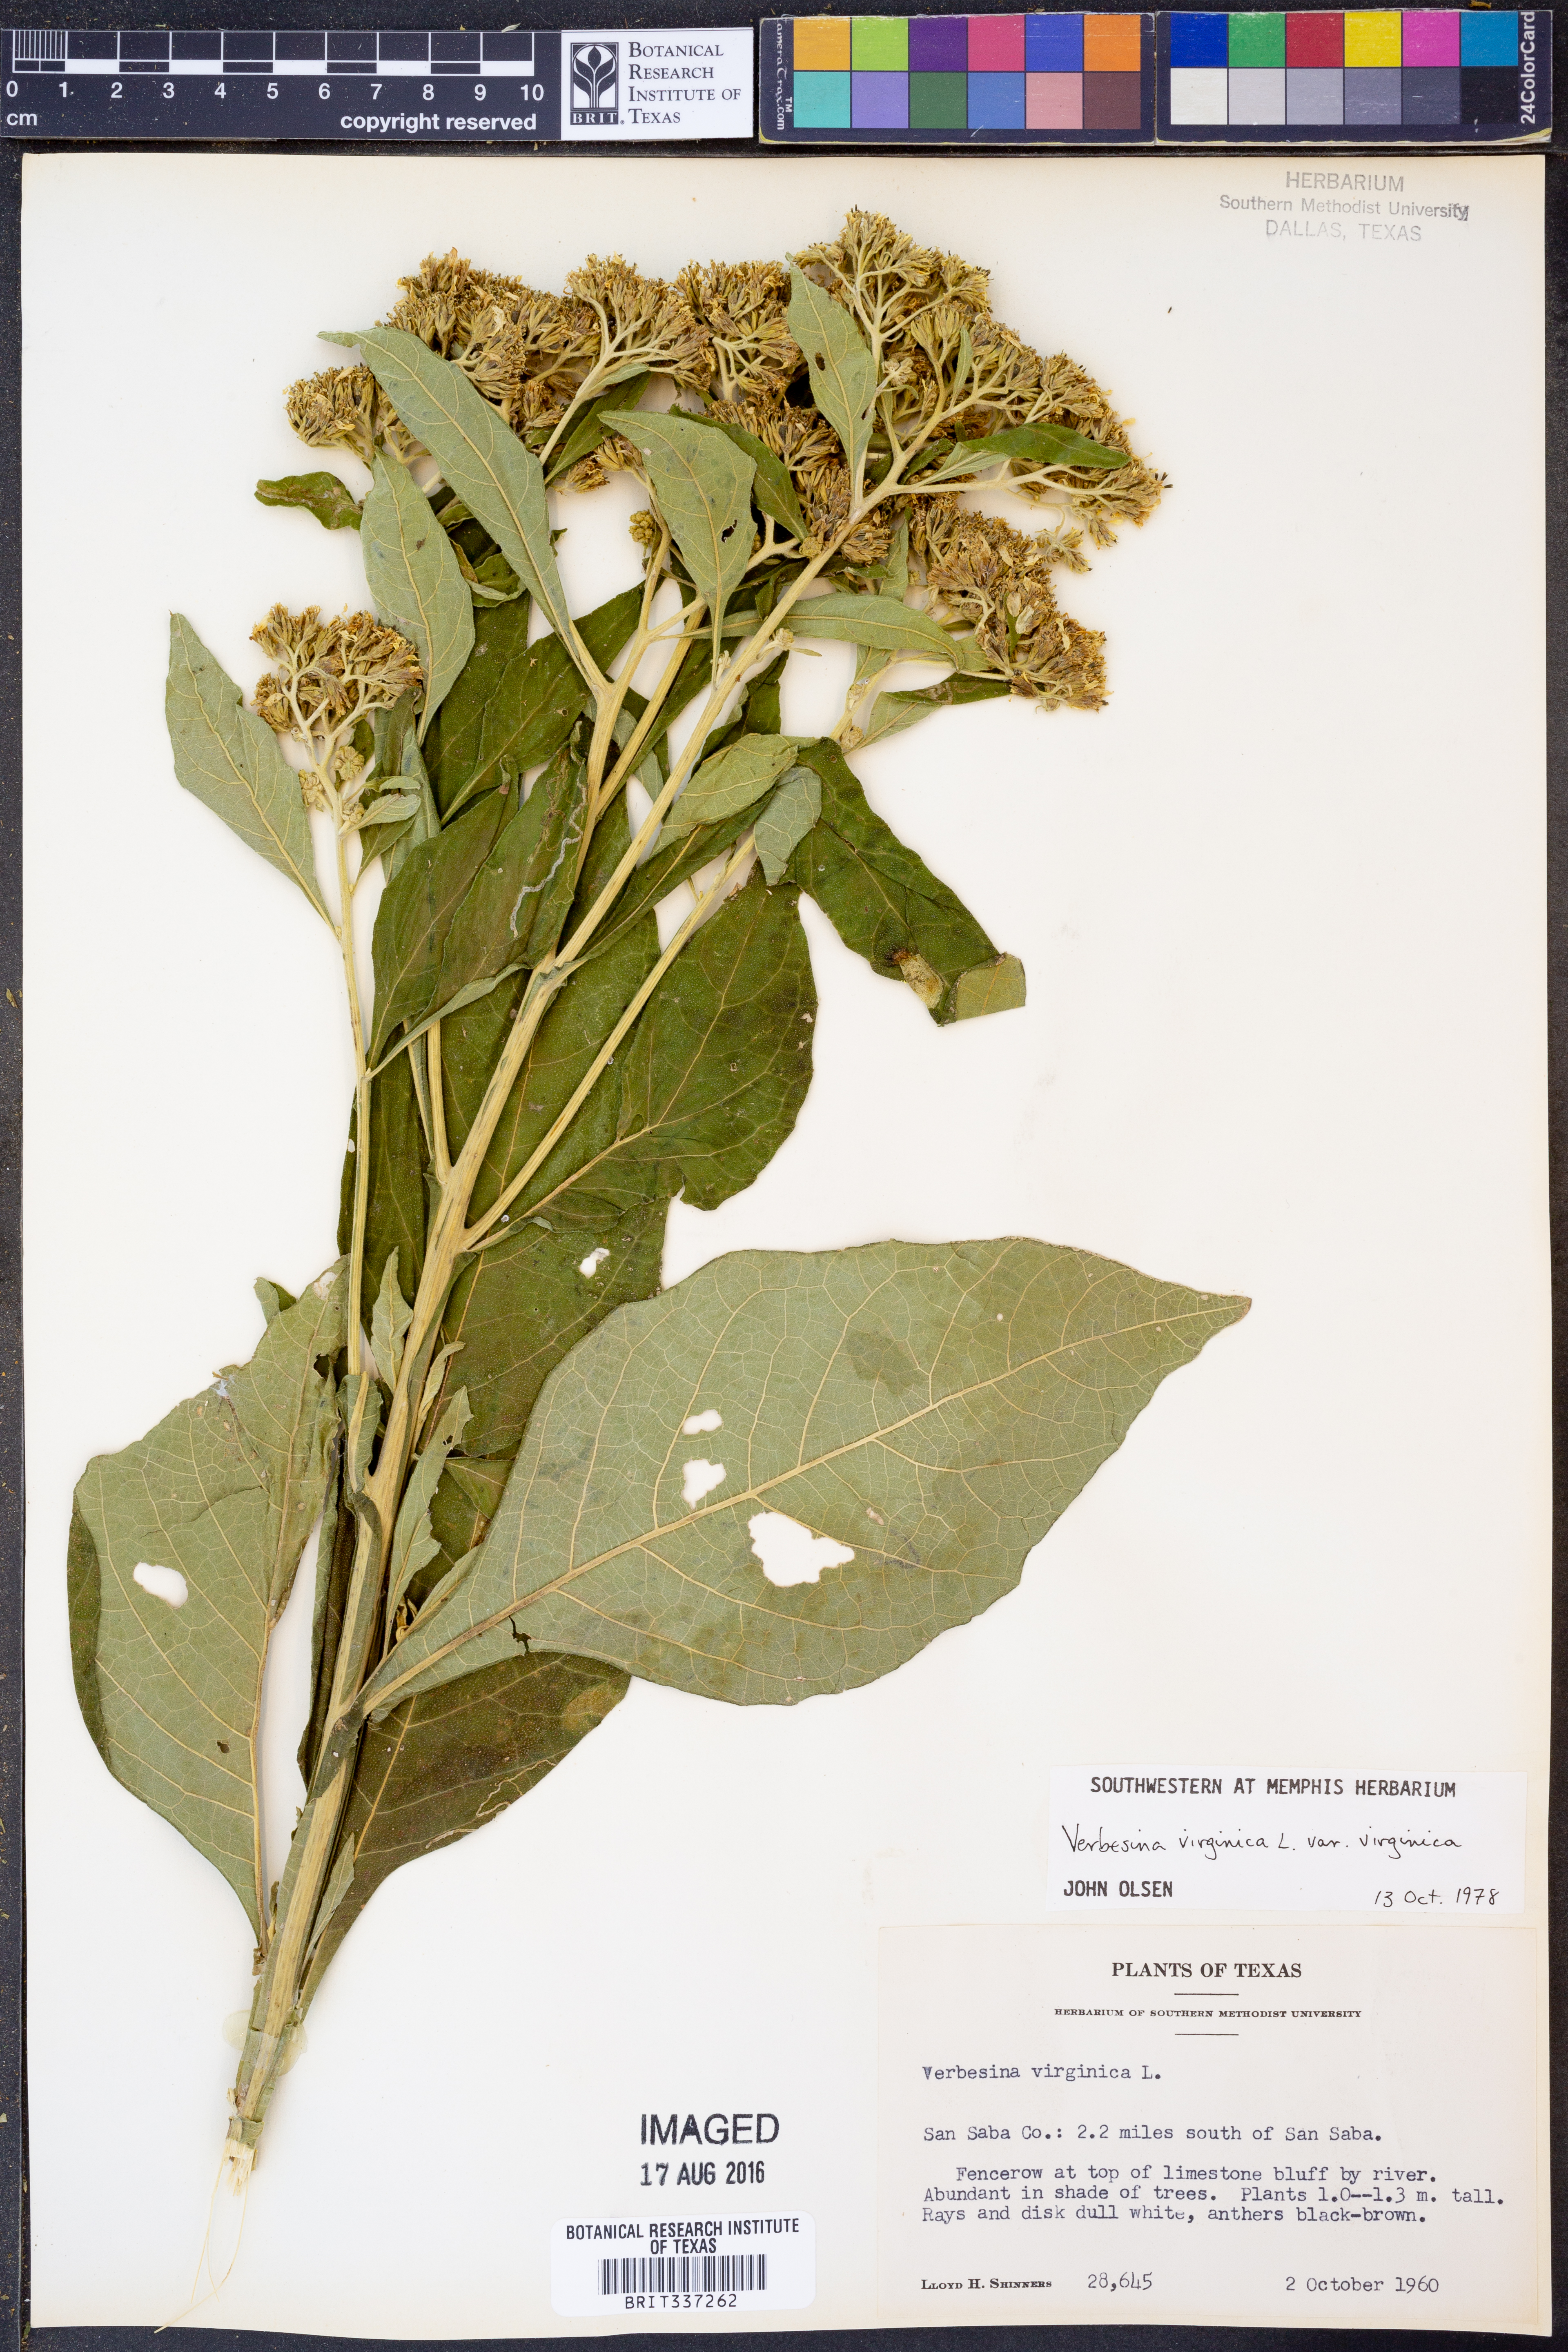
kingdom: Plantae
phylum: Tracheophyta
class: Magnoliopsida
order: Asterales
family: Asteraceae
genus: Verbesina
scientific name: Verbesina virginica
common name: Frostweed
